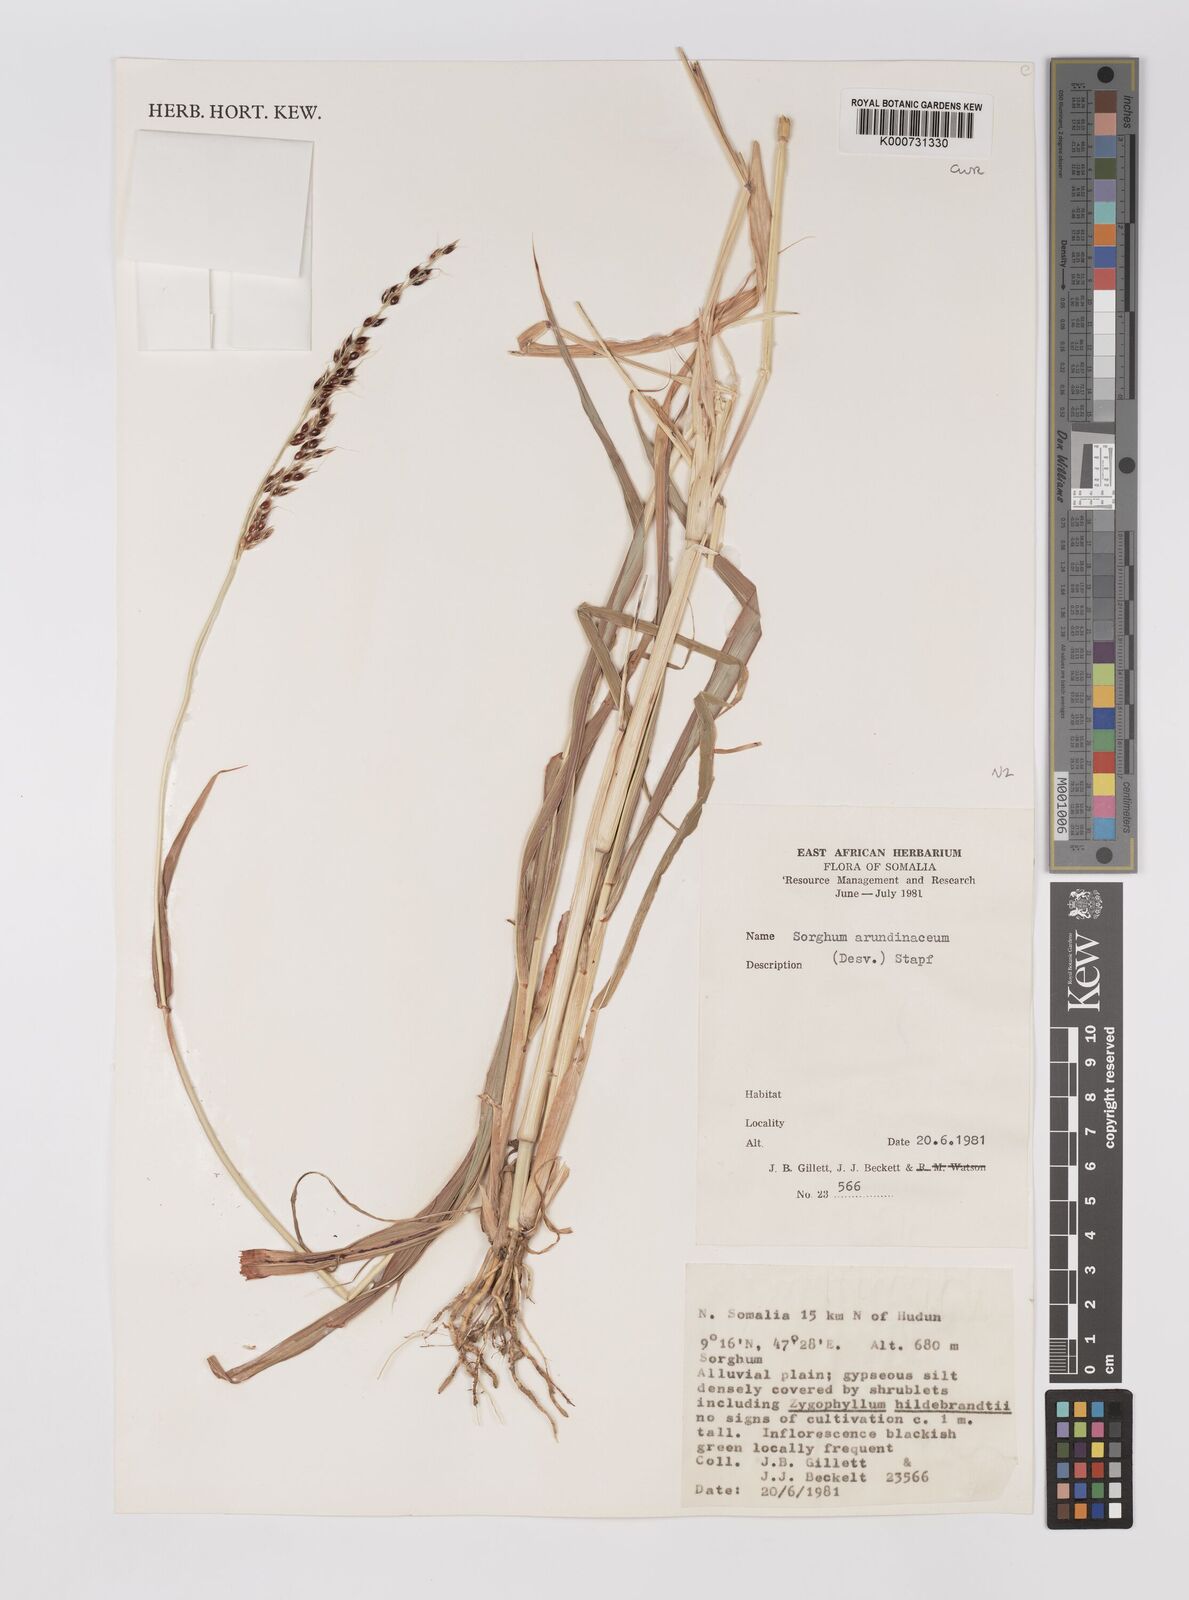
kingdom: Plantae
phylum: Tracheophyta
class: Liliopsida
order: Poales
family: Poaceae
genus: Sorghum
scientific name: Sorghum arundinaceum
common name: Sorghum
